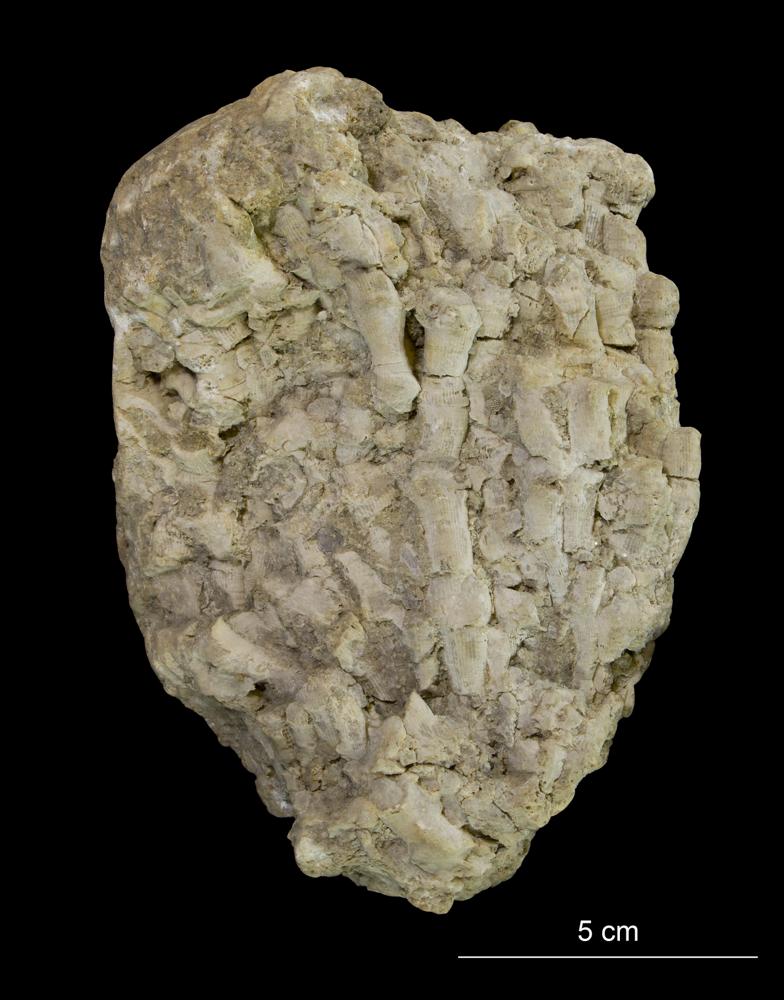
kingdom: Animalia
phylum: Cnidaria
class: Anthozoa
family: Cyathophyllidae
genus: Cyathophyllum
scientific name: Cyathophyllum
